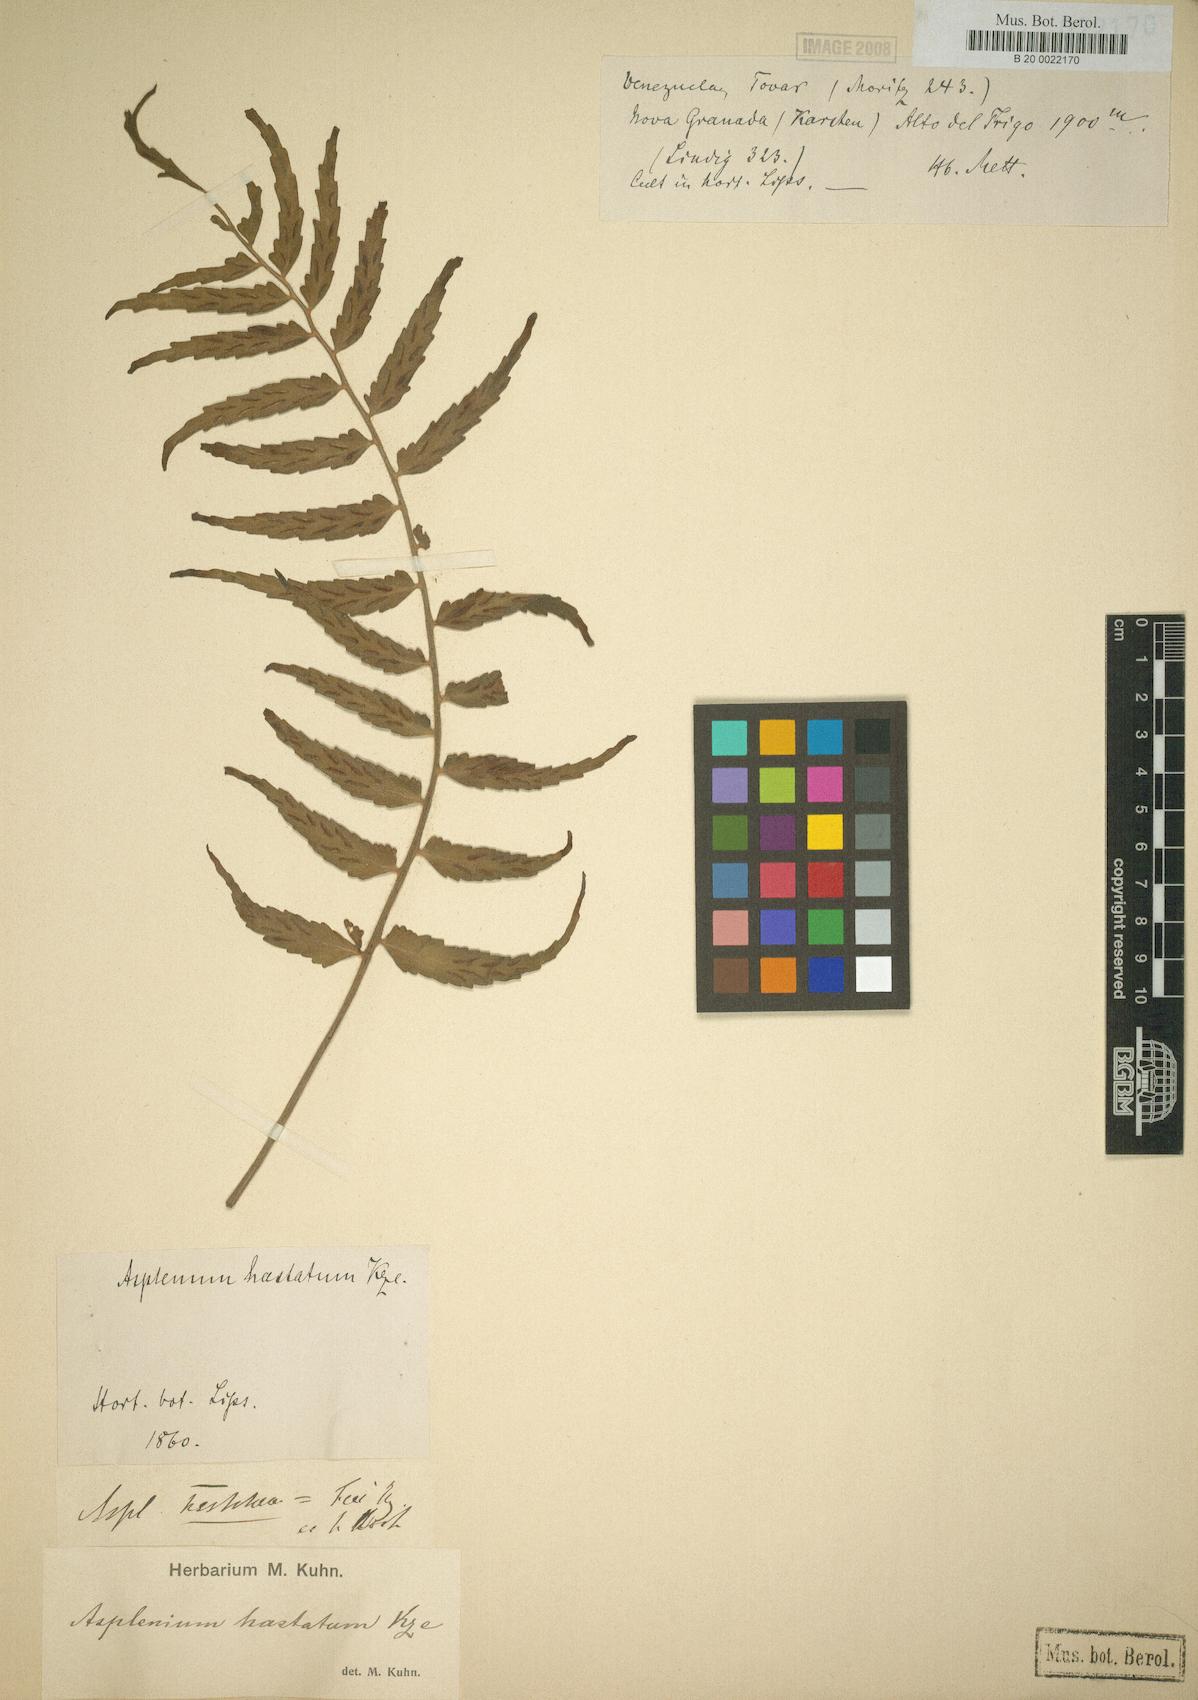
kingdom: Plantae
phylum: Tracheophyta
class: Polypodiopsida
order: Polypodiales
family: Aspleniaceae
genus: Asplenium
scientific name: Asplenium hastatum
